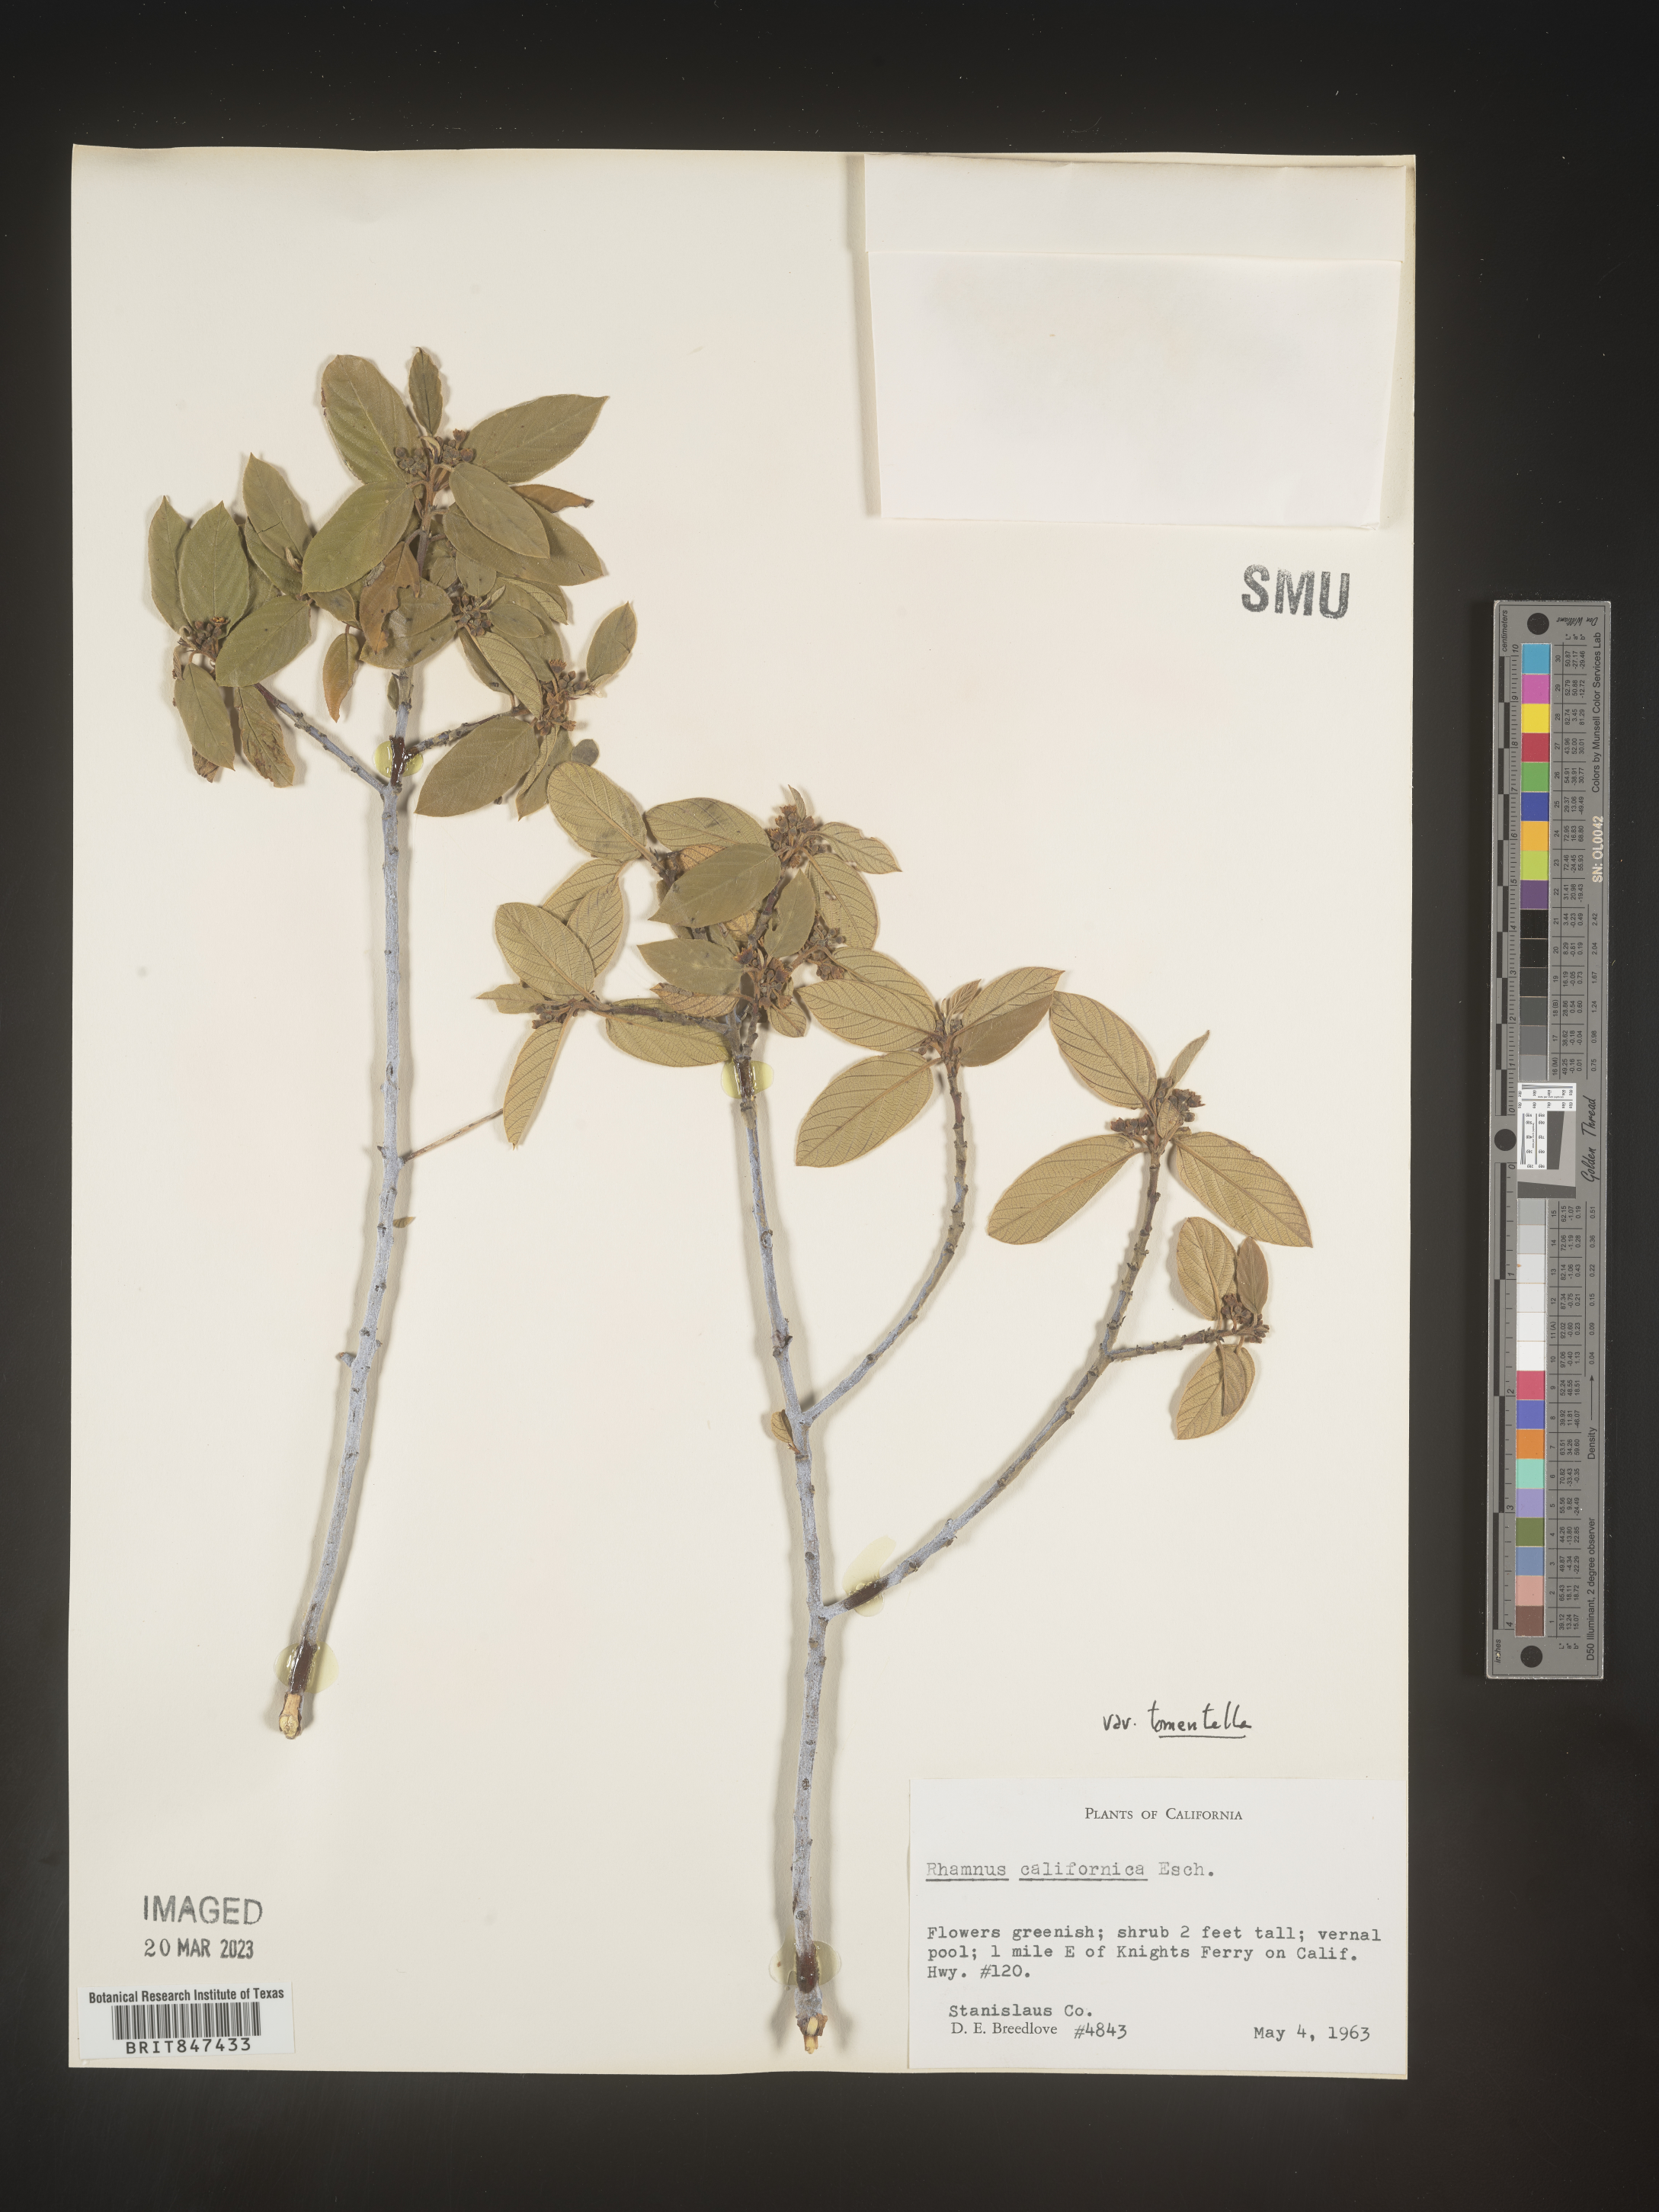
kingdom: Plantae
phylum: Tracheophyta
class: Magnoliopsida
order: Rosales
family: Rhamnaceae
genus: Frangula
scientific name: Frangula californica
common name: California buckthorn
